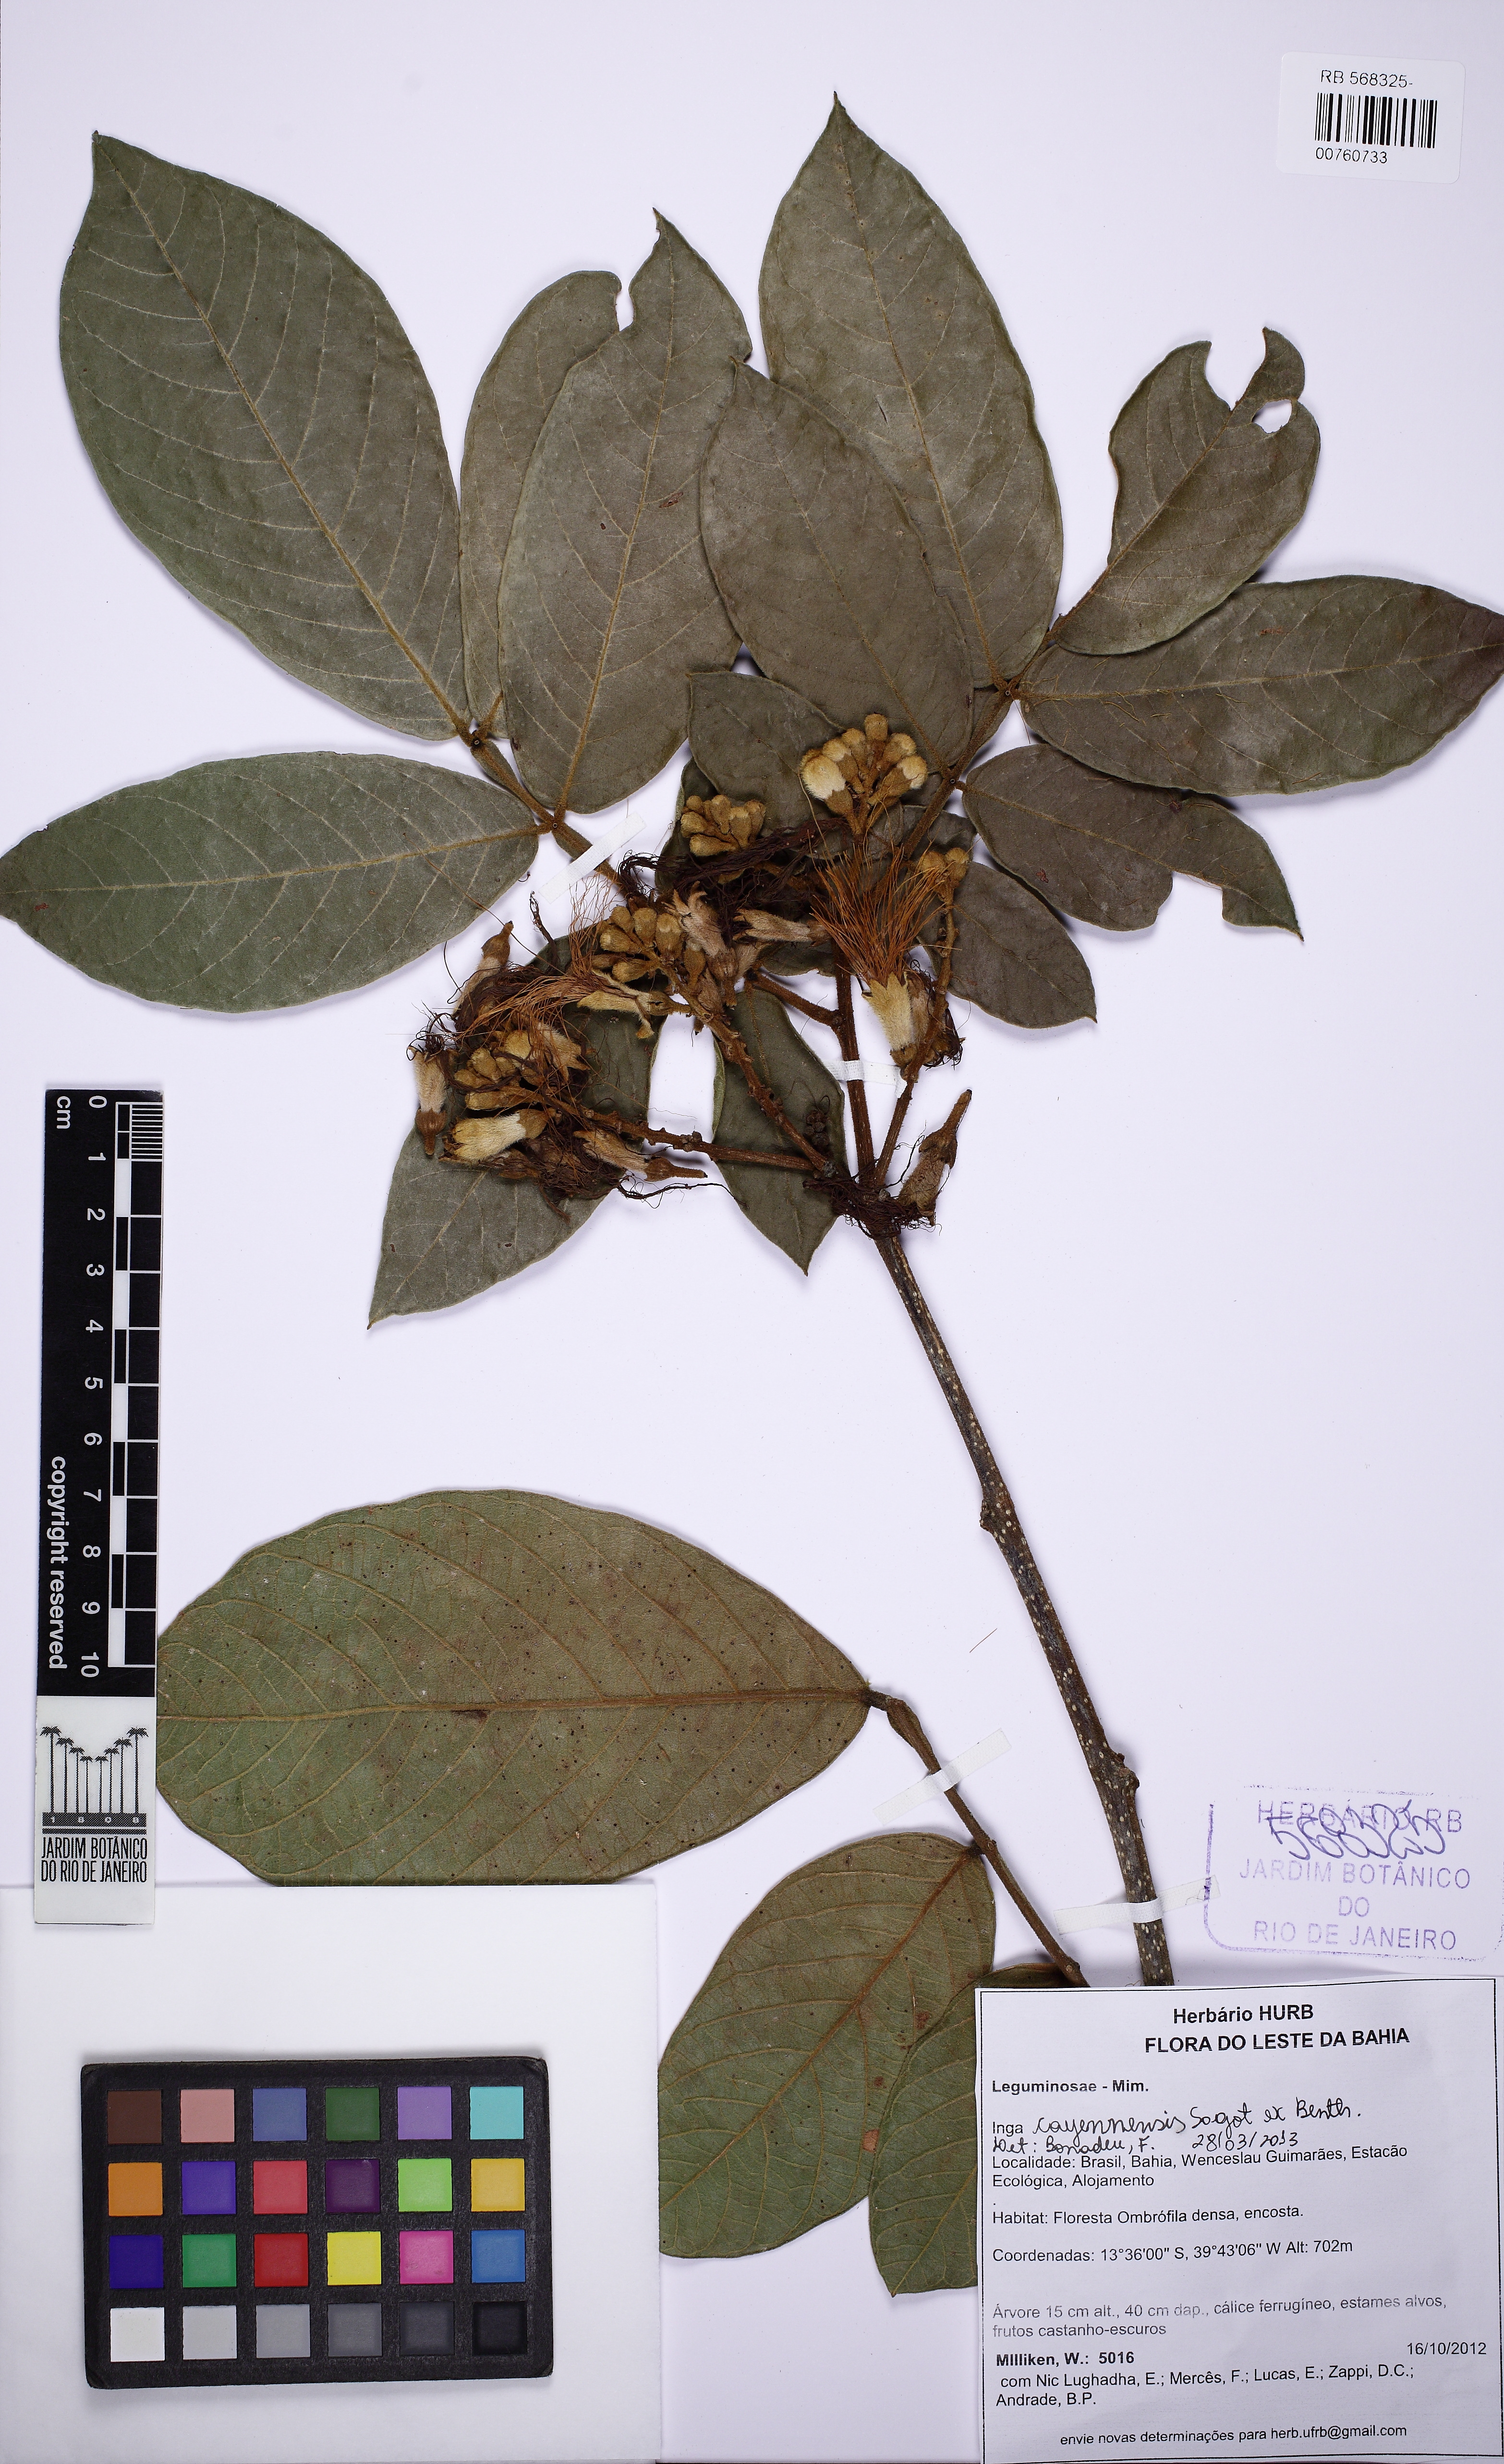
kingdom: Plantae
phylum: Tracheophyta
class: Magnoliopsida
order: Fabales
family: Fabaceae
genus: Inga
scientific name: Inga cayennensis
